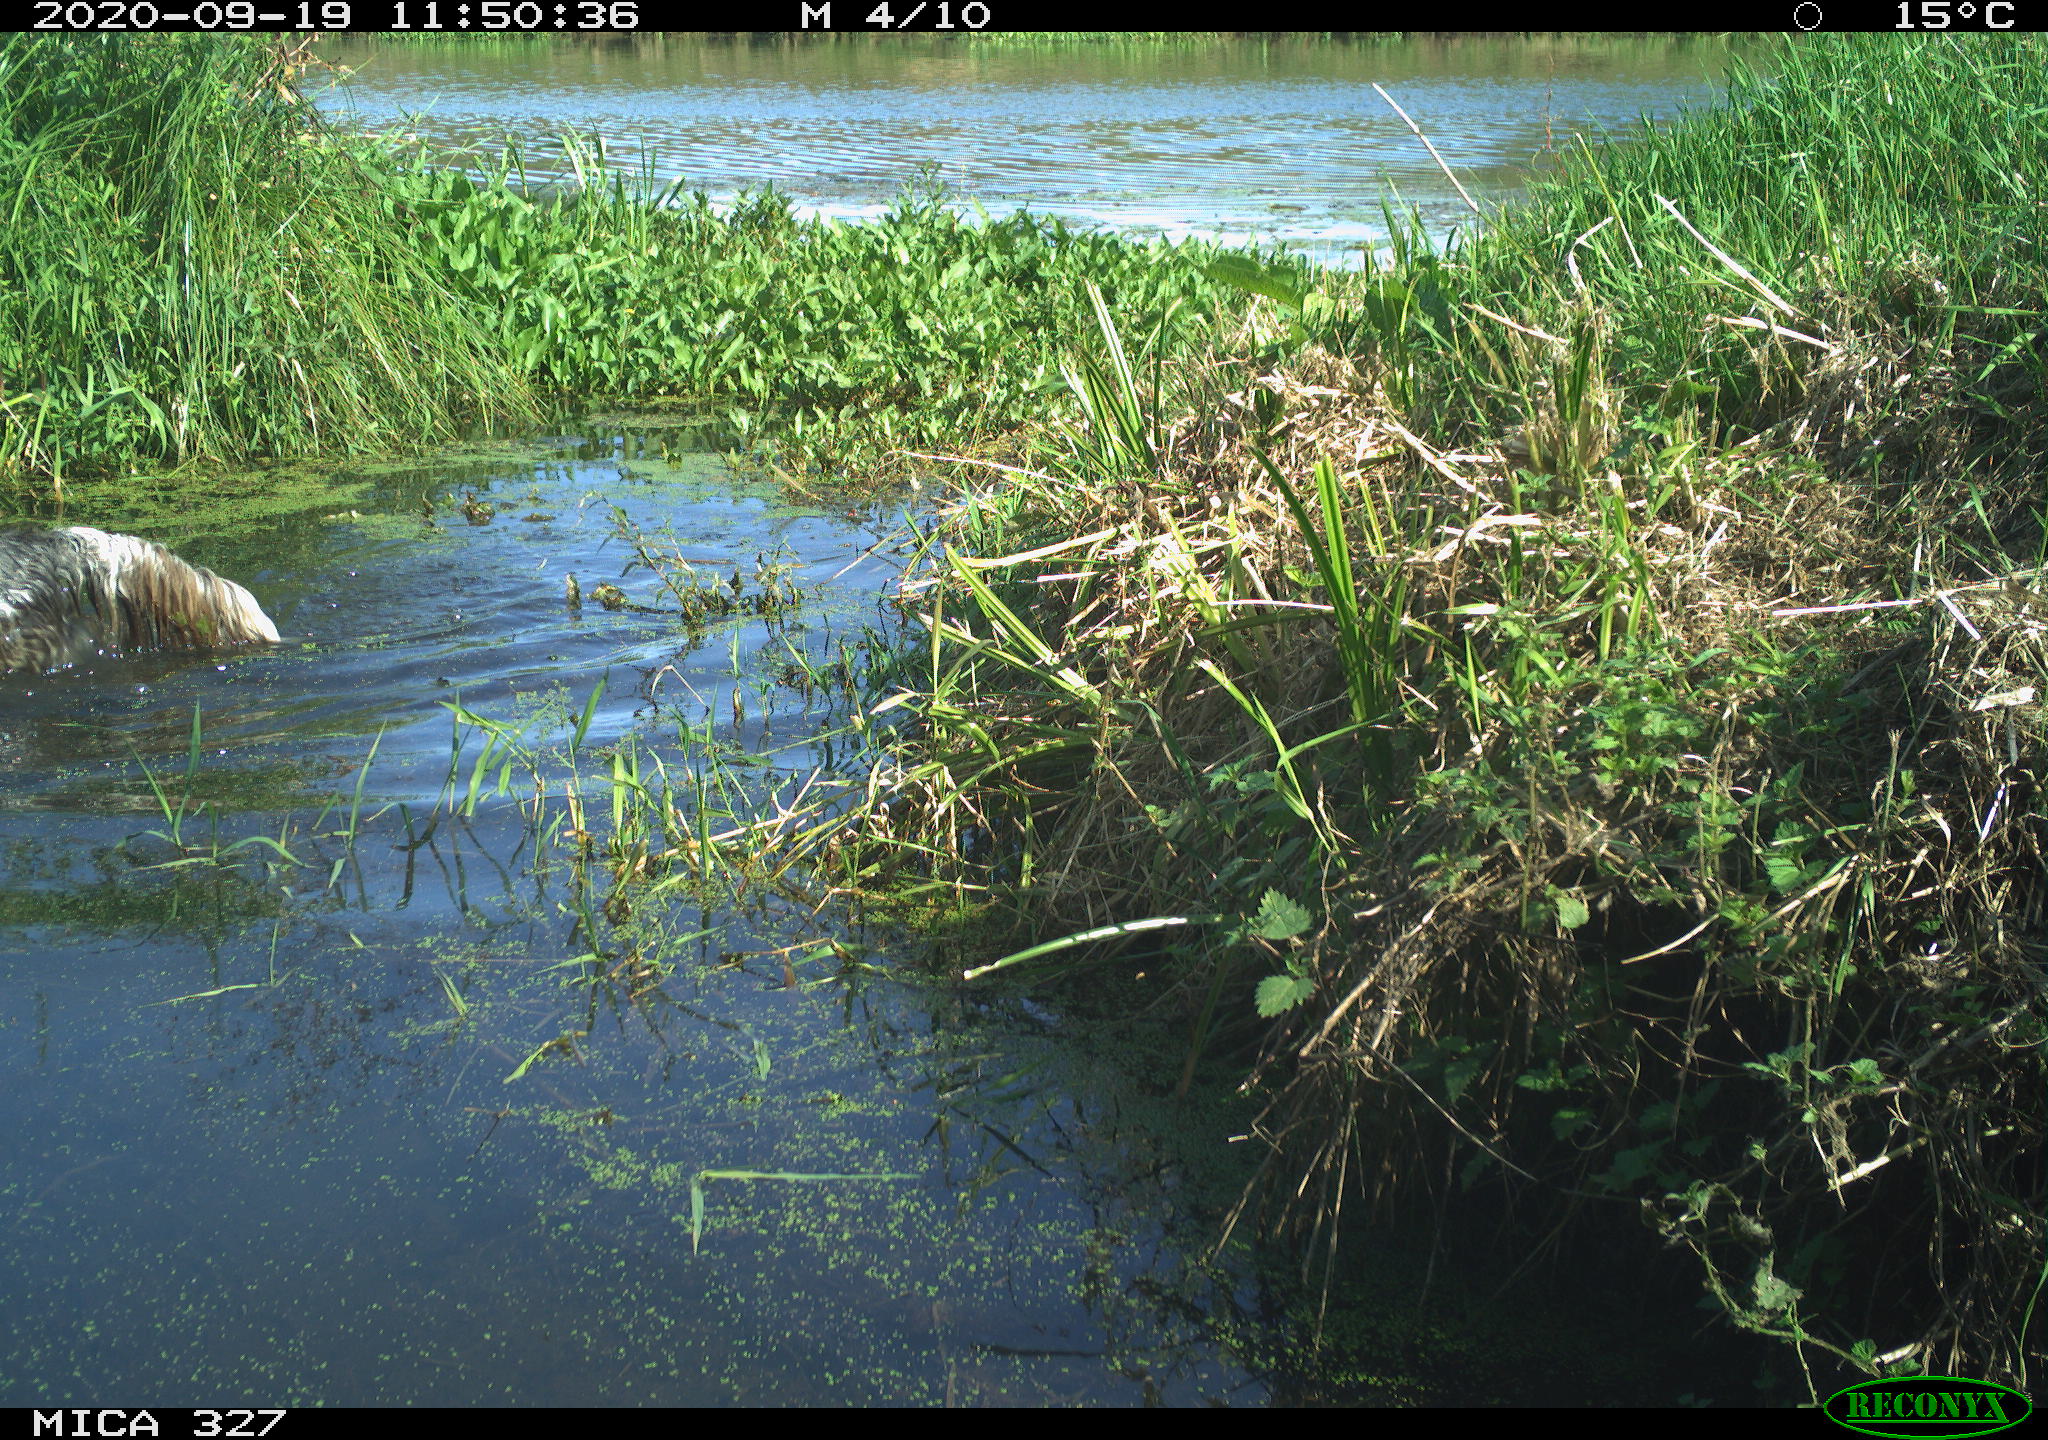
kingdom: Animalia
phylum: Chordata
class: Mammalia
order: Carnivora
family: Canidae
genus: Canis
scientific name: Canis lupus
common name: Gray wolf
